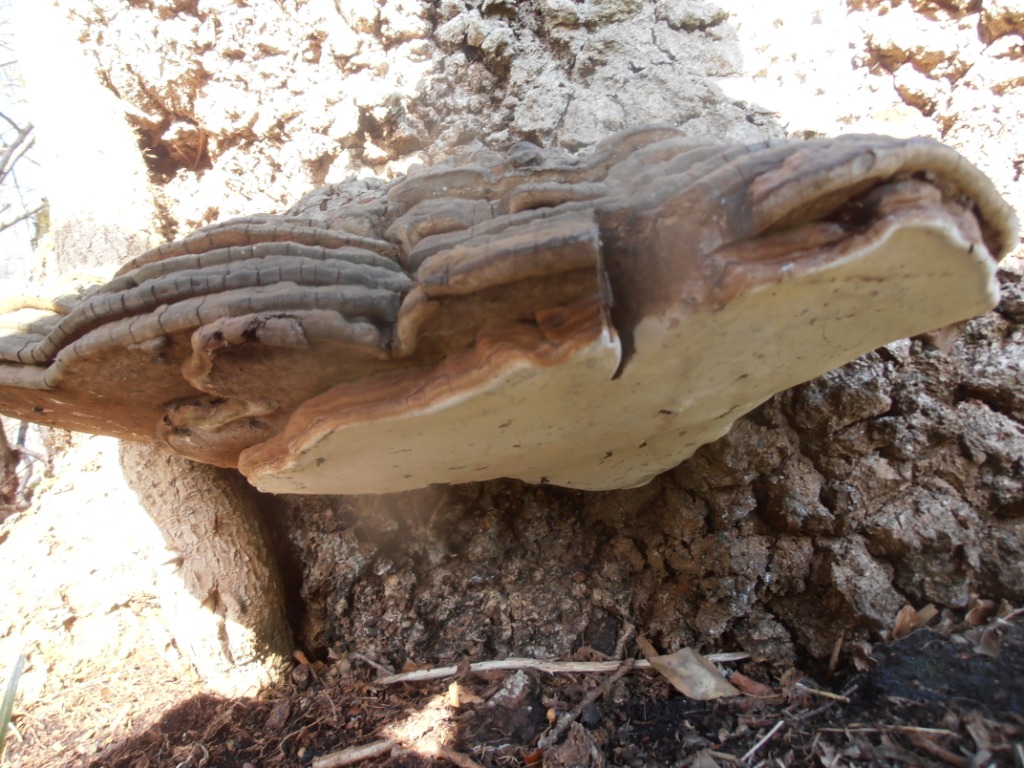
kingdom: Fungi
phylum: Basidiomycota
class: Agaricomycetes
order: Polyporales
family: Polyporaceae
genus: Ganoderma
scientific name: Ganoderma applanatum
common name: flad lakporesvamp
